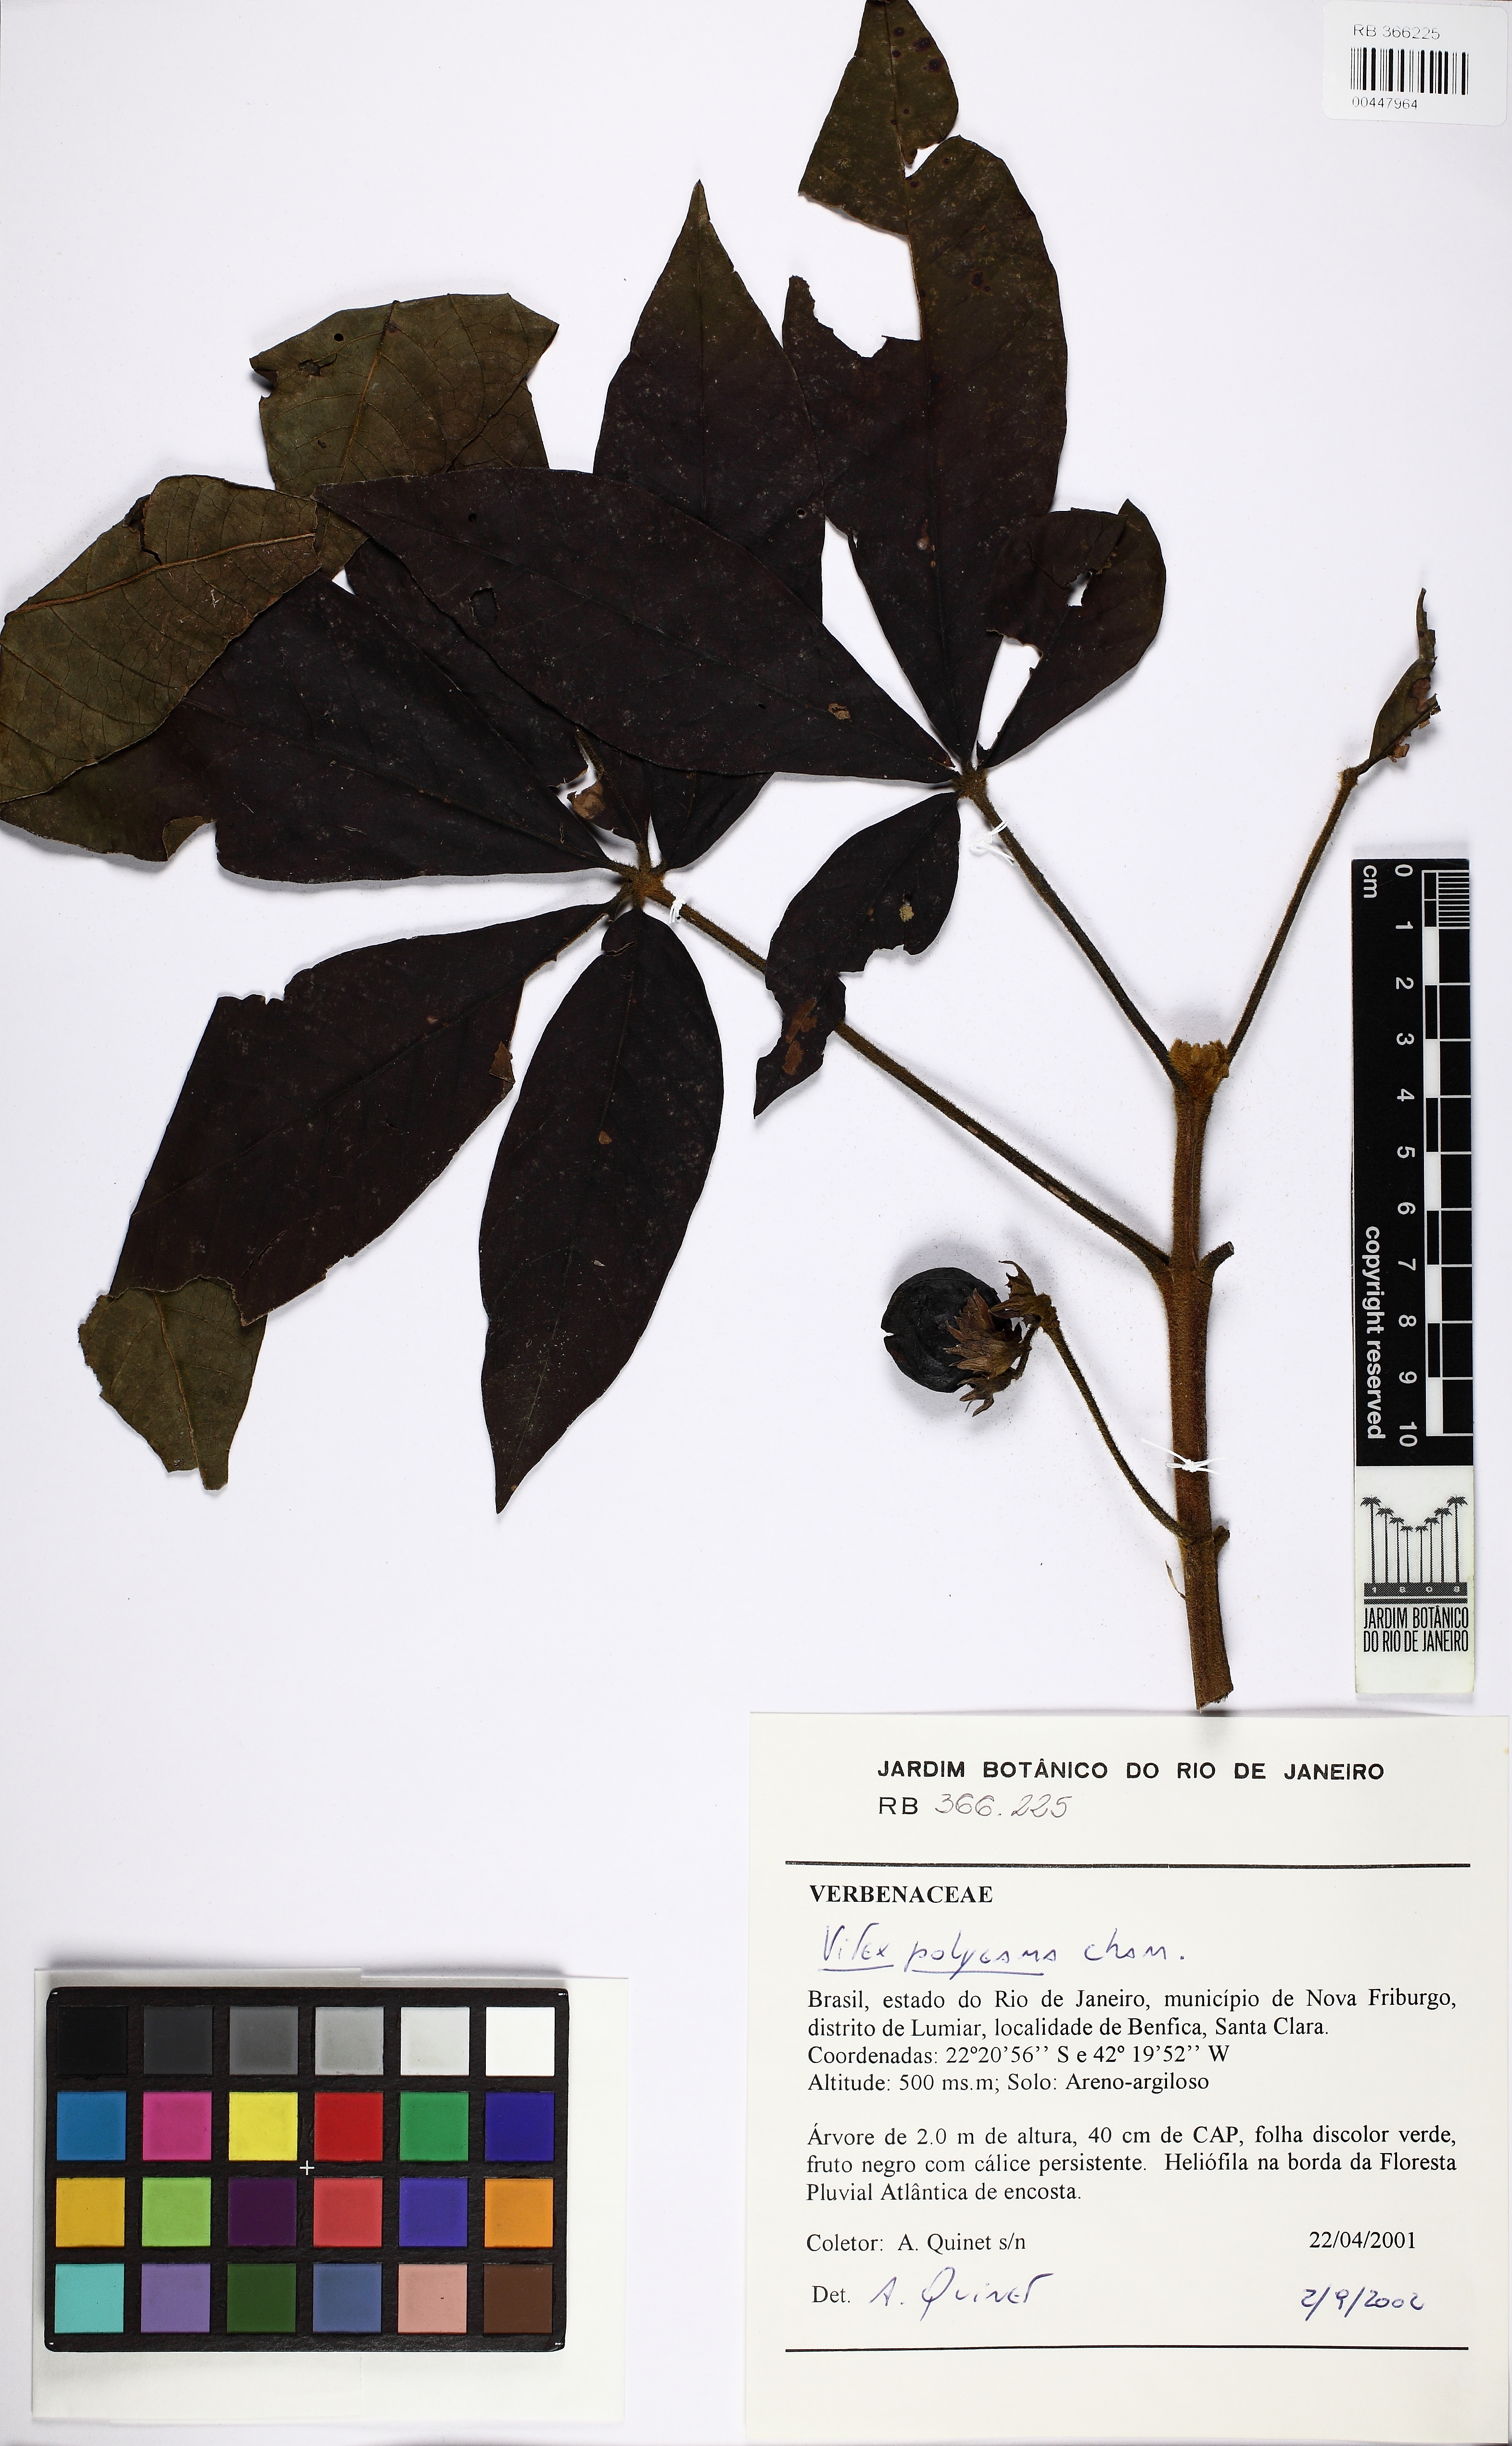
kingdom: Plantae
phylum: Tracheophyta
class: Magnoliopsida
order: Lamiales
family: Lamiaceae
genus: Vitex
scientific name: Vitex polygama
